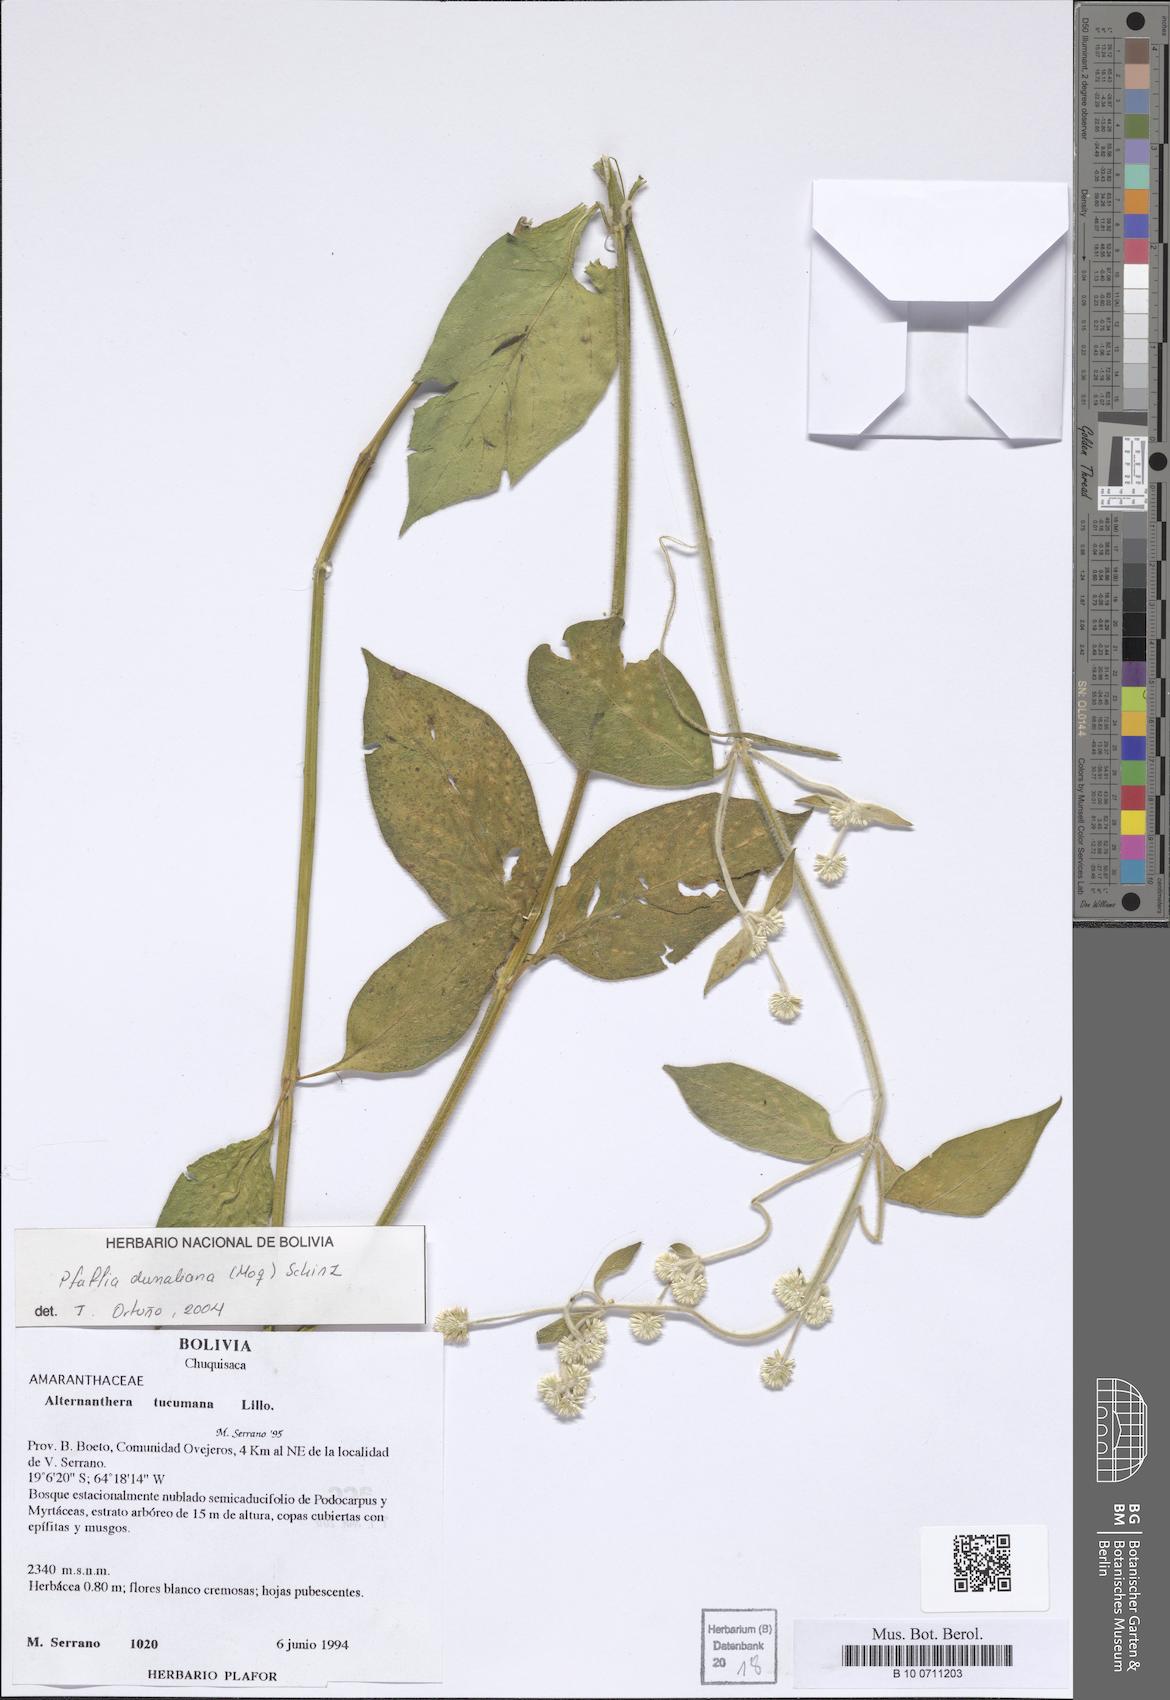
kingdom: Plantae
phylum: Tracheophyta
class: Magnoliopsida
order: Caryophyllales
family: Amaranthaceae
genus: Pfaffia
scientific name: Pfaffia glomerata
